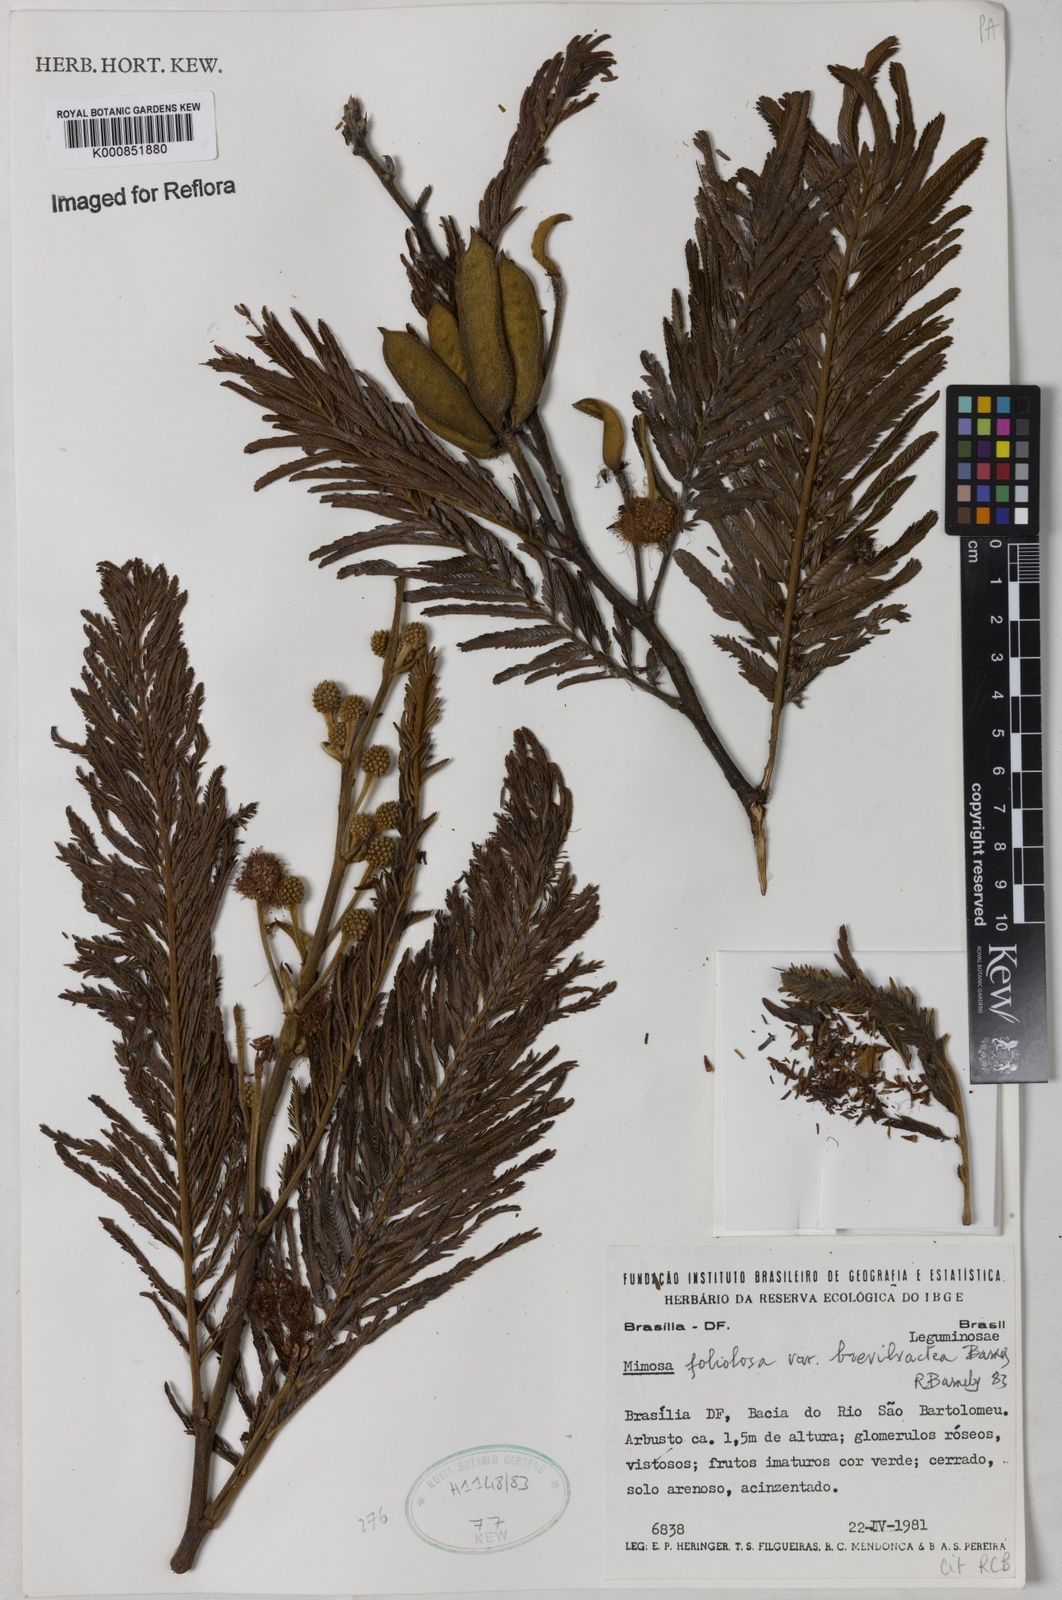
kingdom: Plantae
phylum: Tracheophyta
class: Magnoliopsida
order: Fabales
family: Fabaceae
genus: Mimosa
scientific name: Mimosa foliolosa
